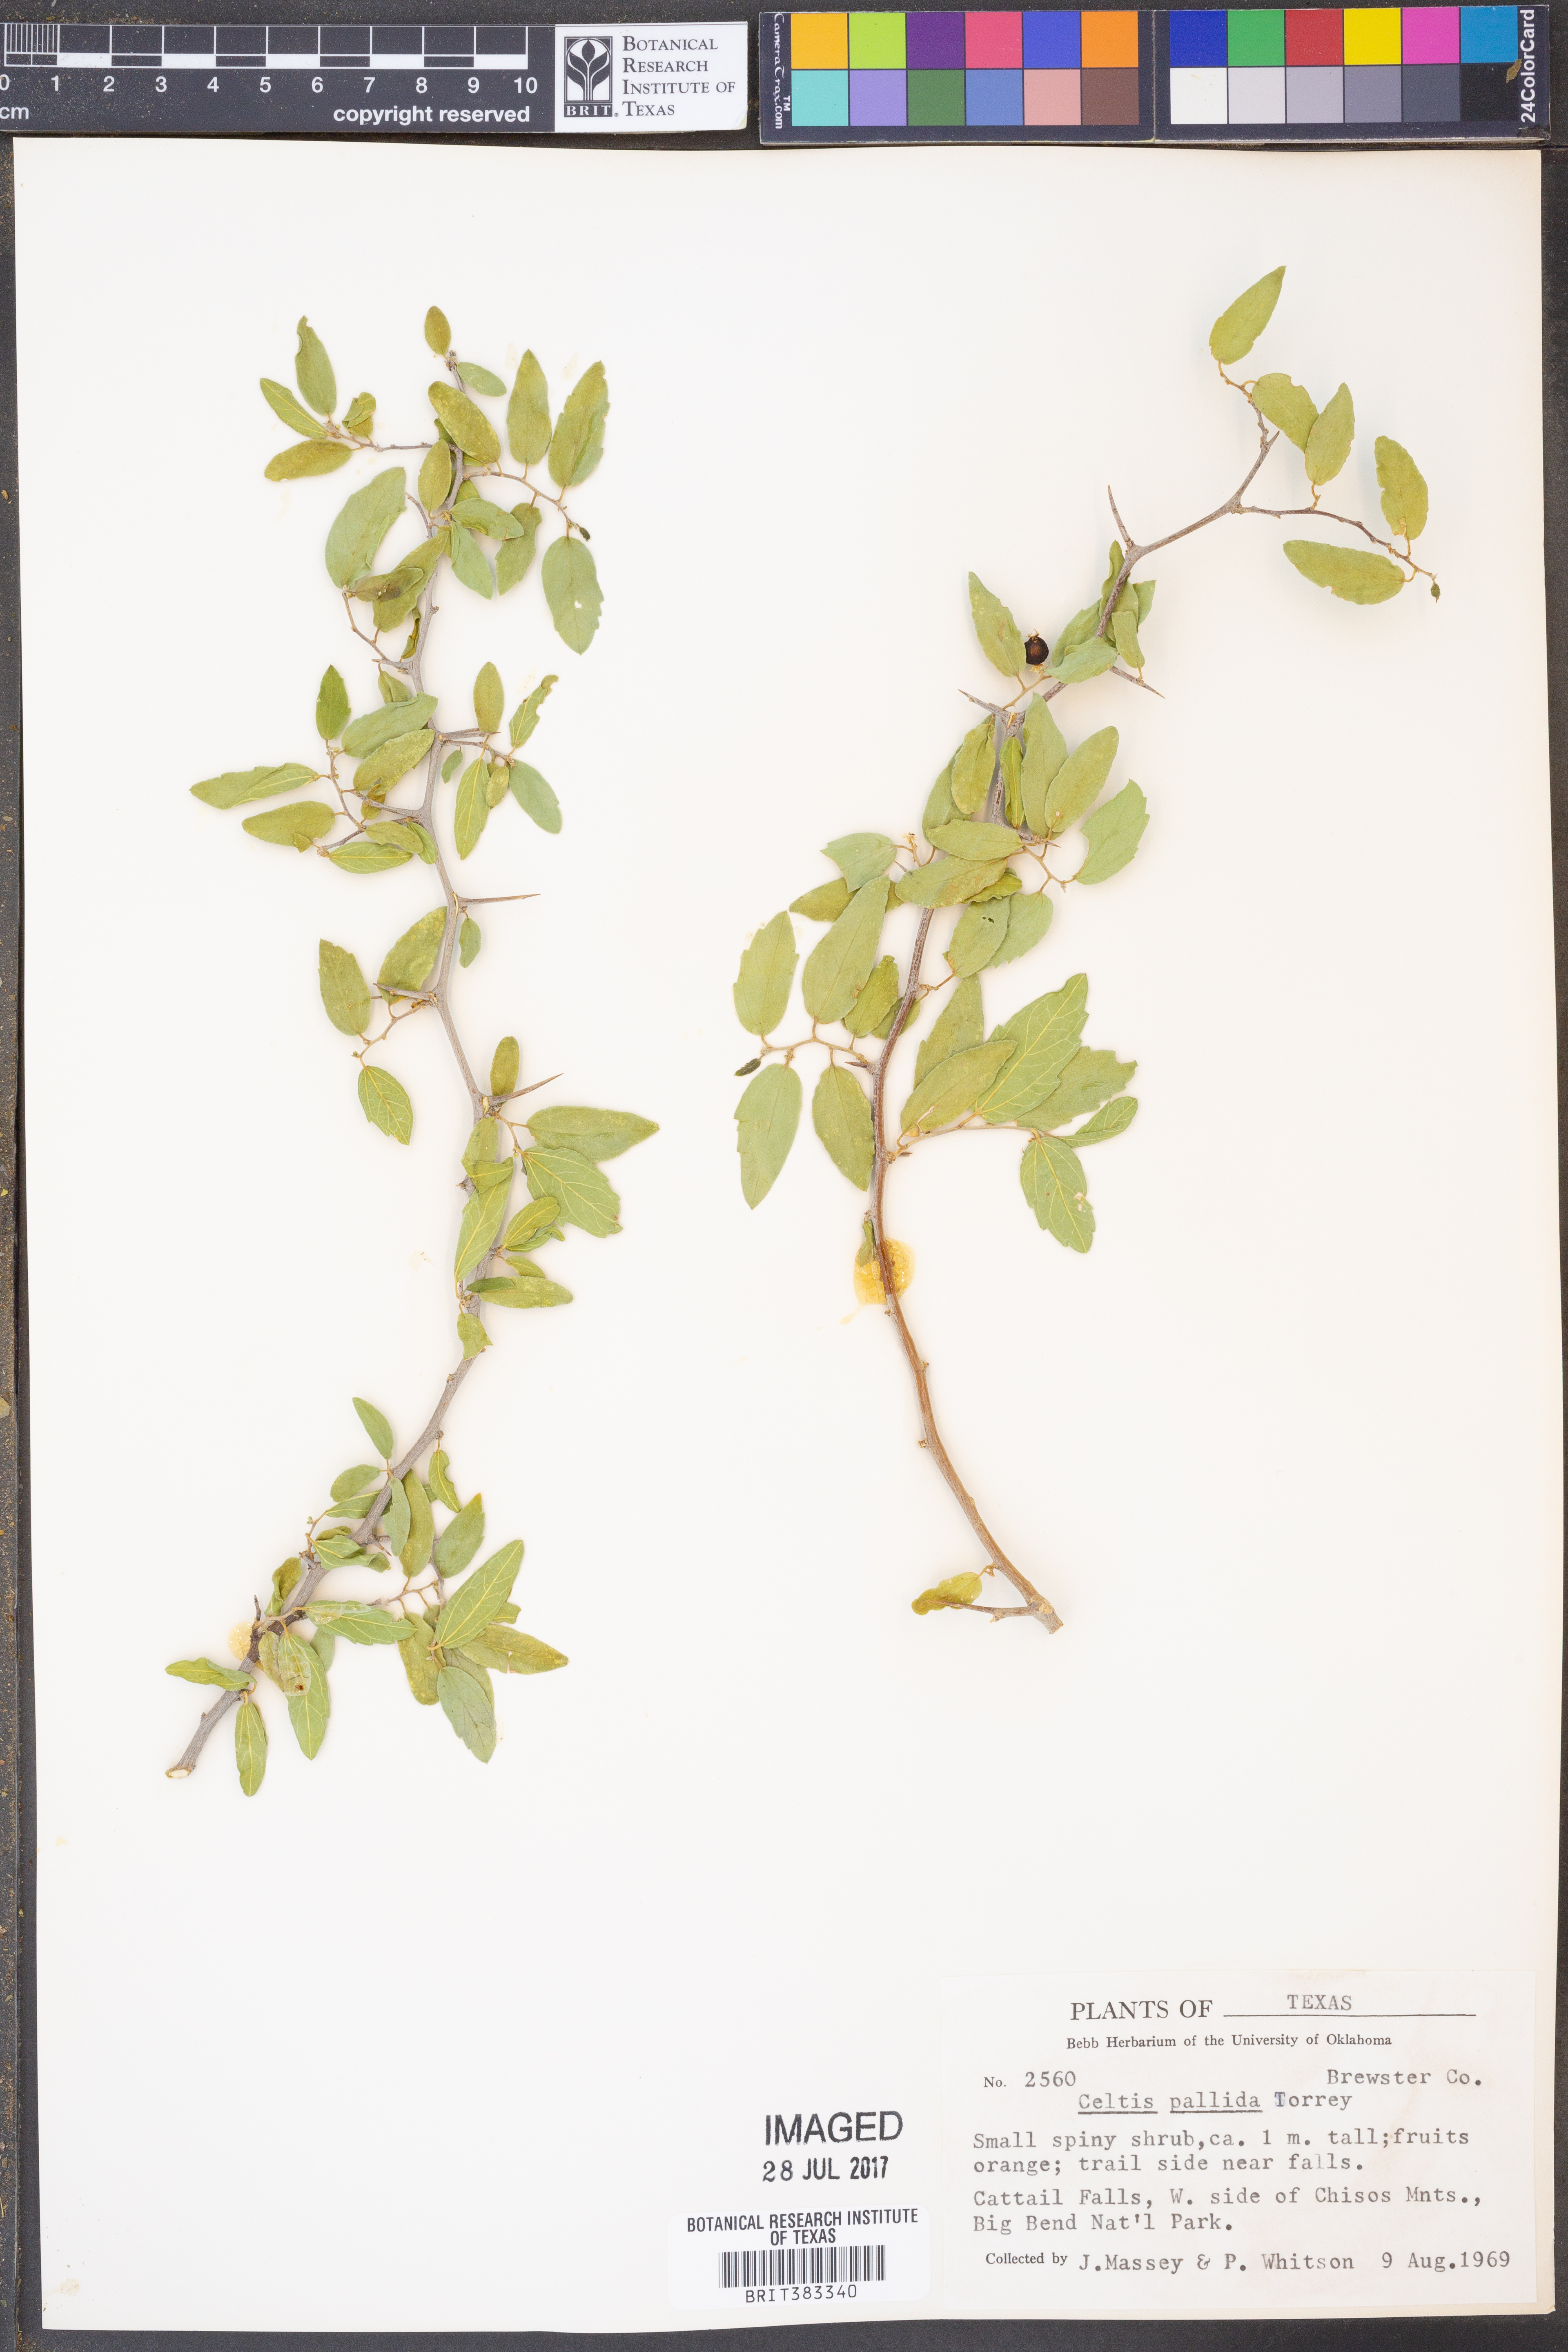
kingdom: Plantae
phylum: Tracheophyta
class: Magnoliopsida
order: Rosales
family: Cannabaceae
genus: Celtis
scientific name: Celtis pallida
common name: Desert hackberry
